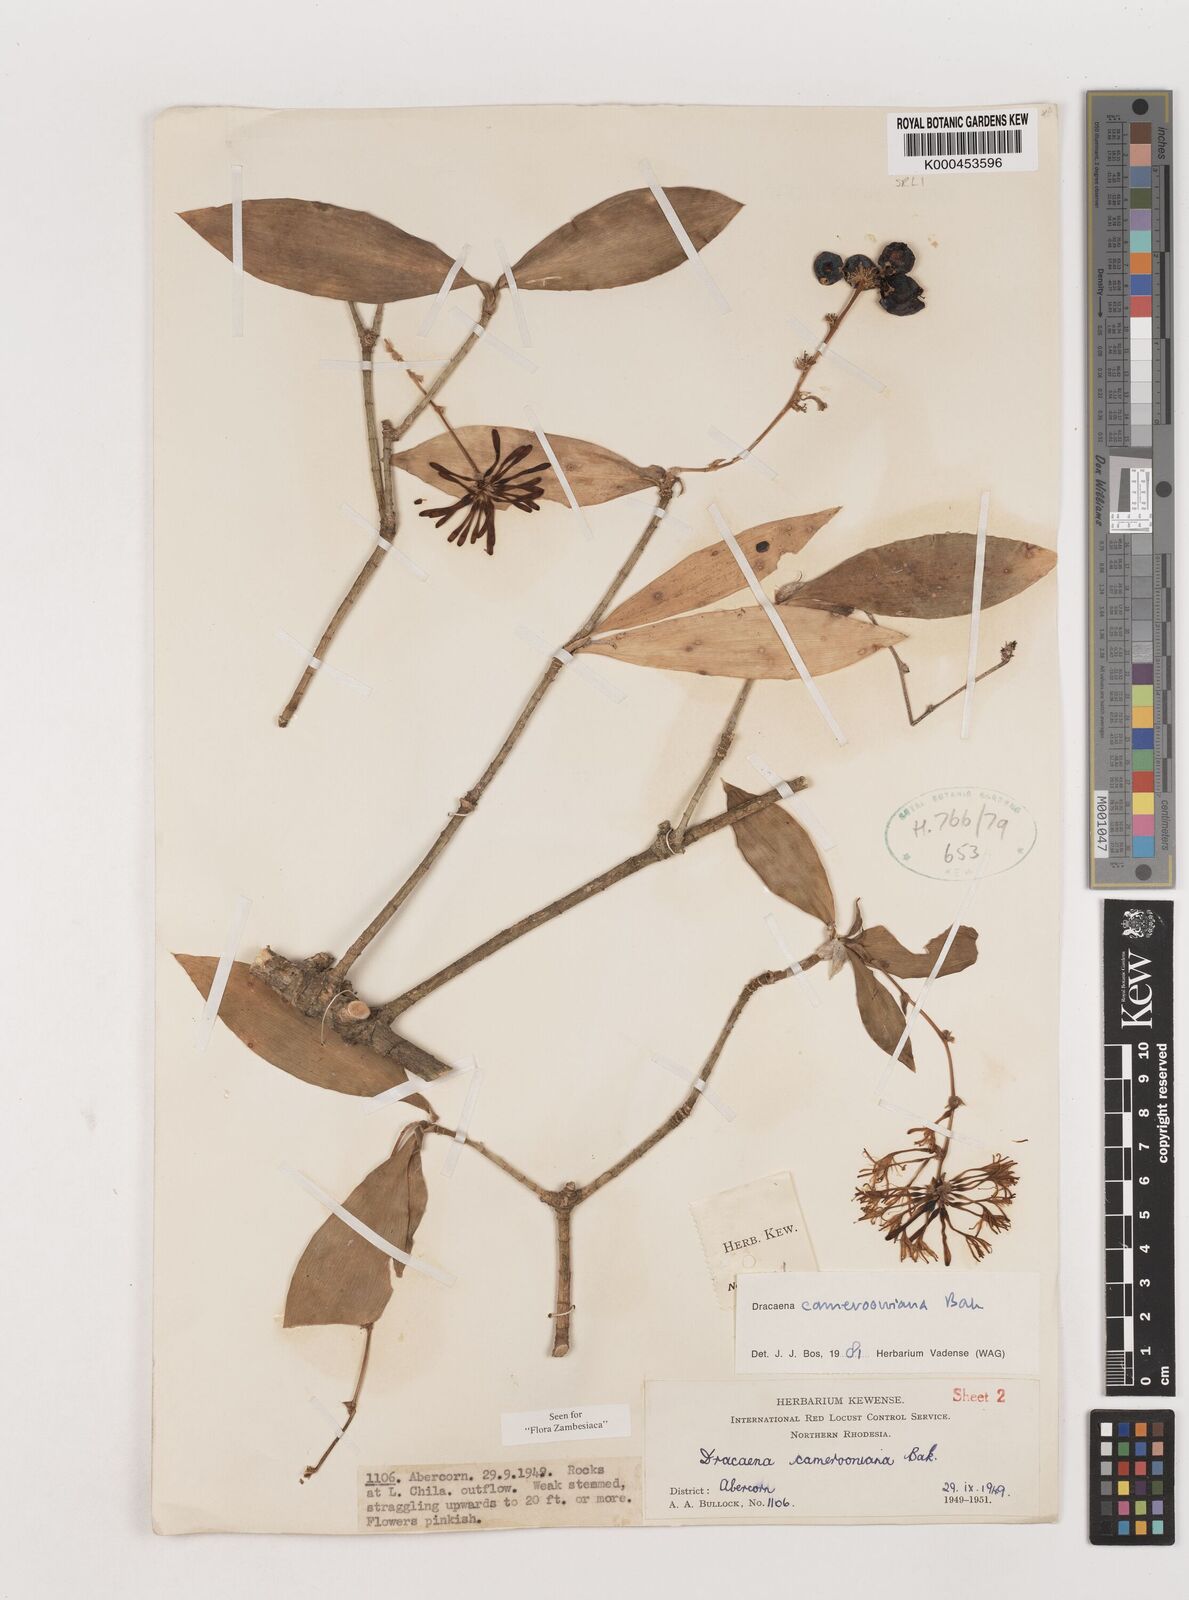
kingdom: Plantae
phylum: Tracheophyta
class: Liliopsida
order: Asparagales
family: Asparagaceae
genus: Dracaena
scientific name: Dracaena camerooniana
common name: Dragon tree
